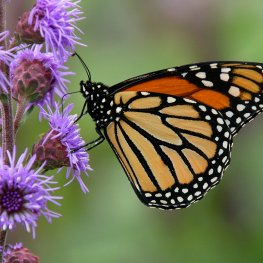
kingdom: Animalia
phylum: Arthropoda
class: Insecta
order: Lepidoptera
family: Nymphalidae
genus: Danaus
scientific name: Danaus plexippus
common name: Monarch
